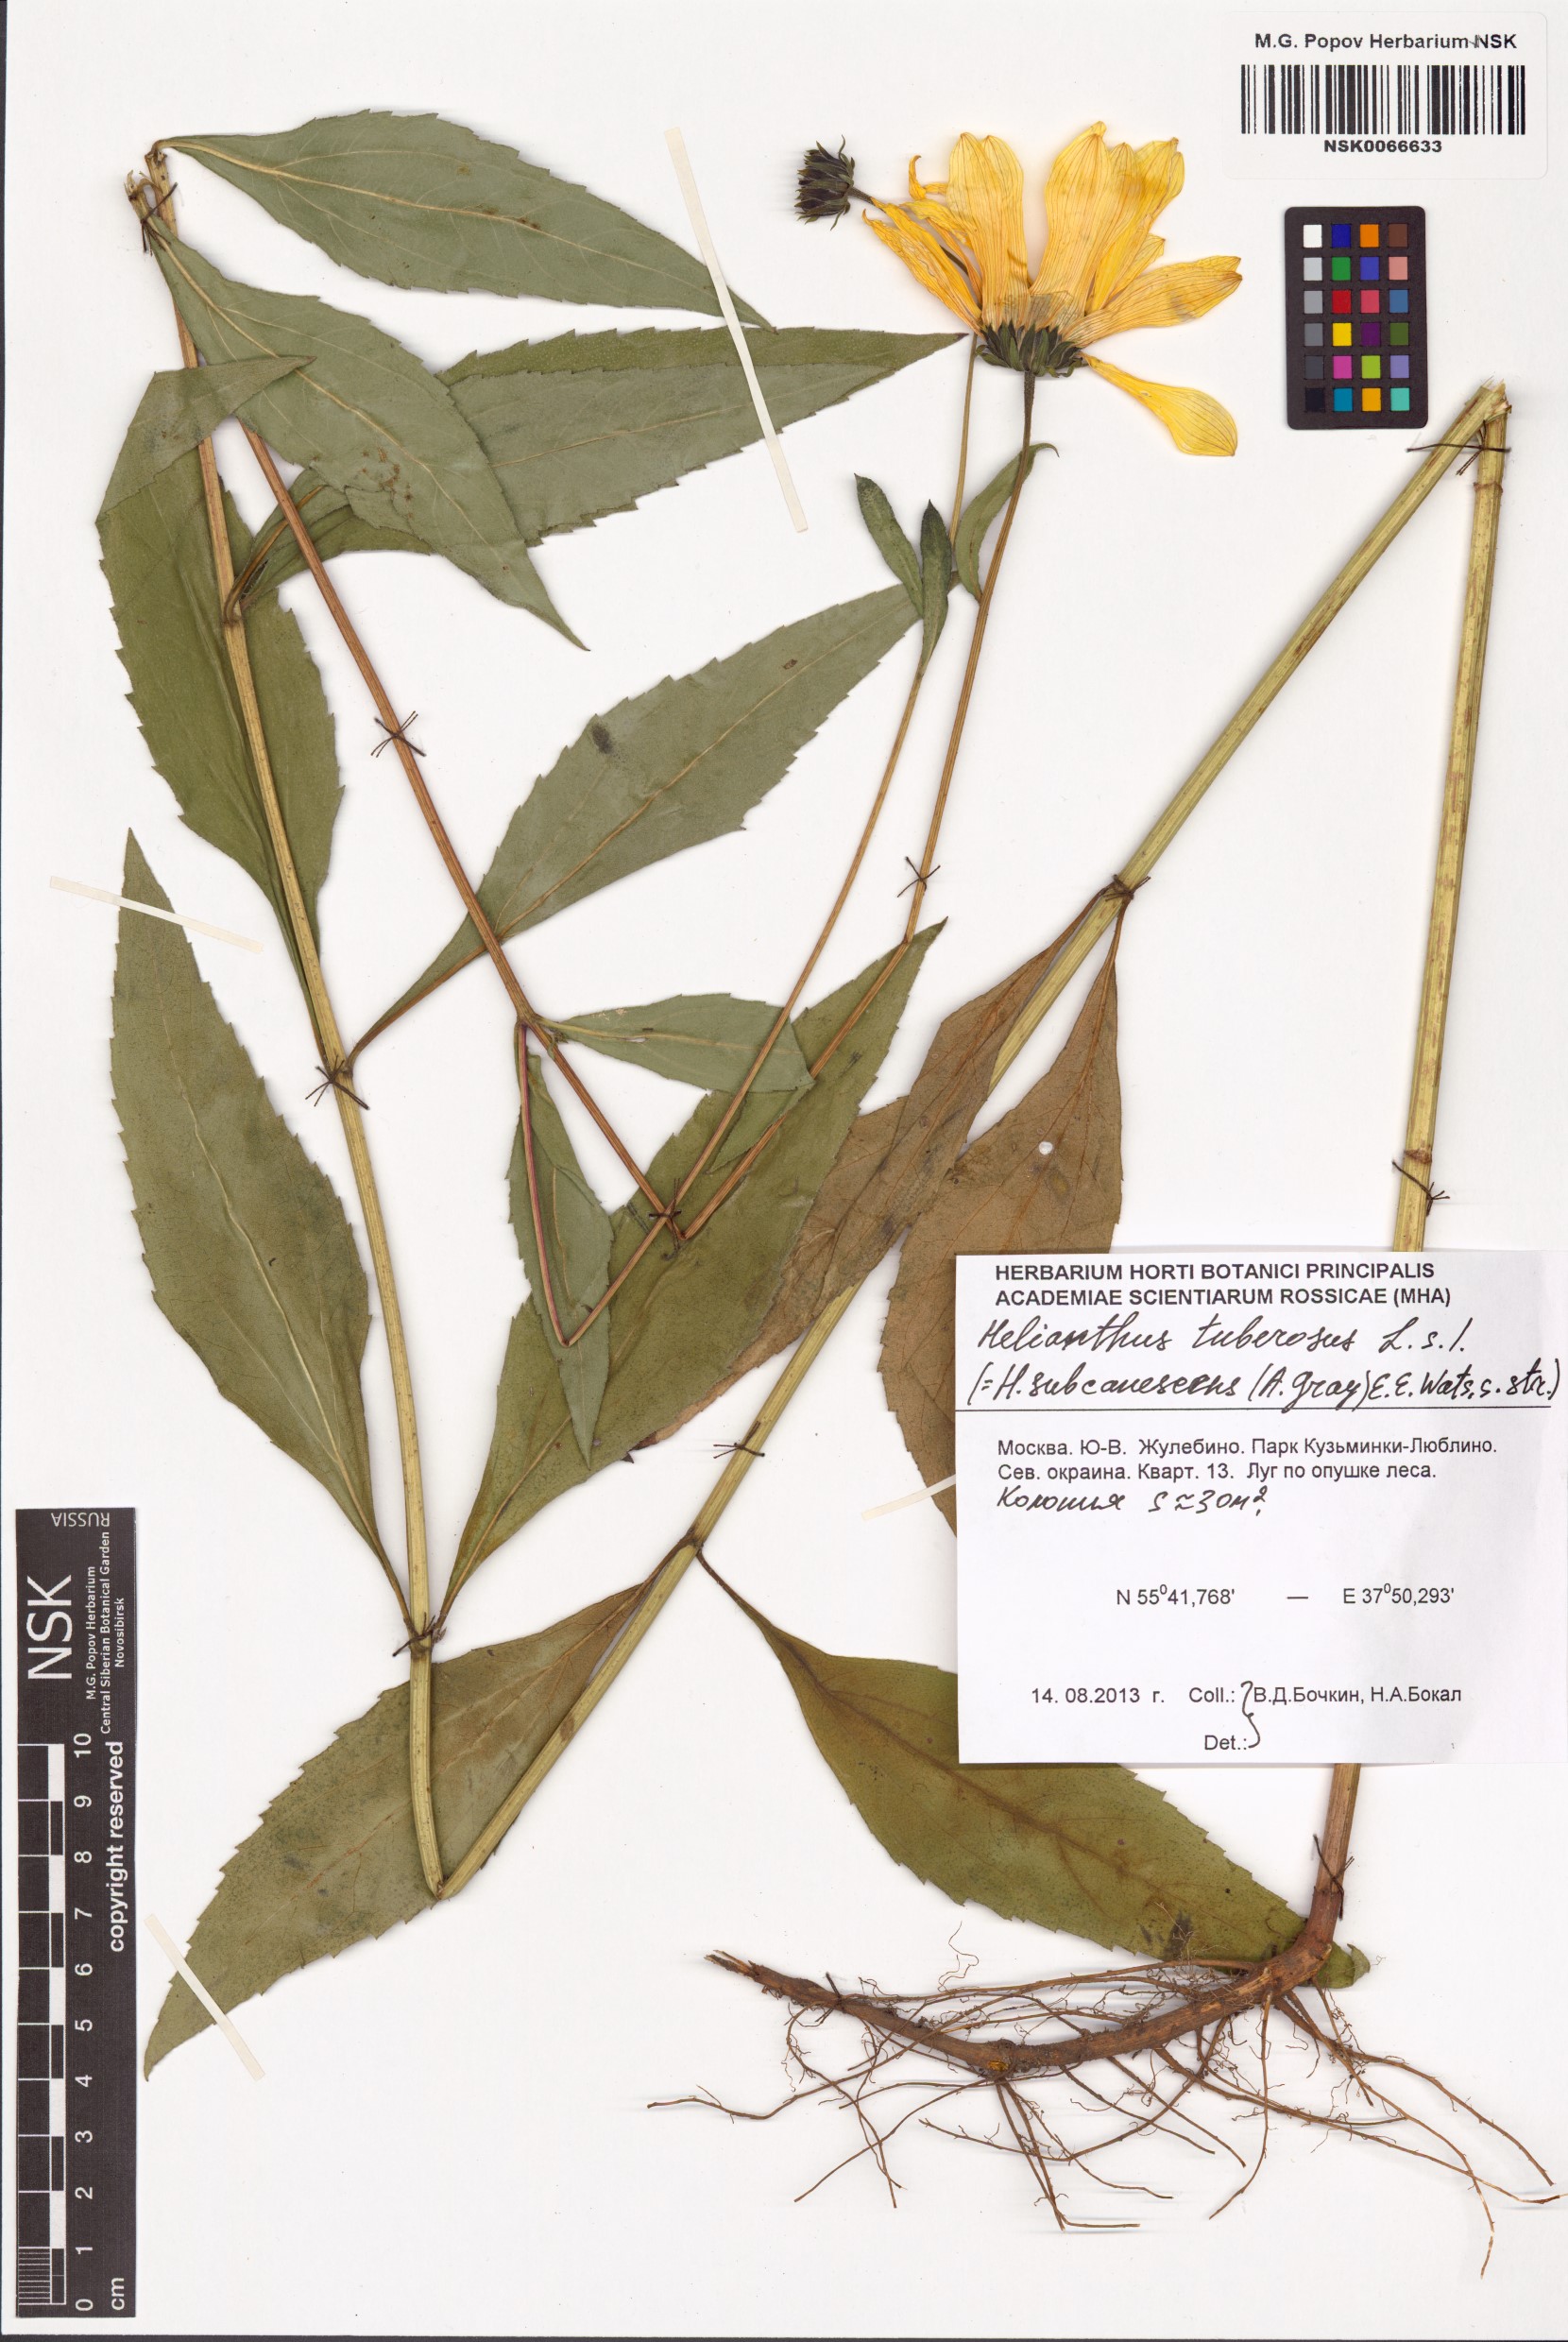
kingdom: Plantae
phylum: Tracheophyta
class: Magnoliopsida
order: Asterales
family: Asteraceae
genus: Helianthus
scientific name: Helianthus tuberosus
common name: Jerusalem artichoke
